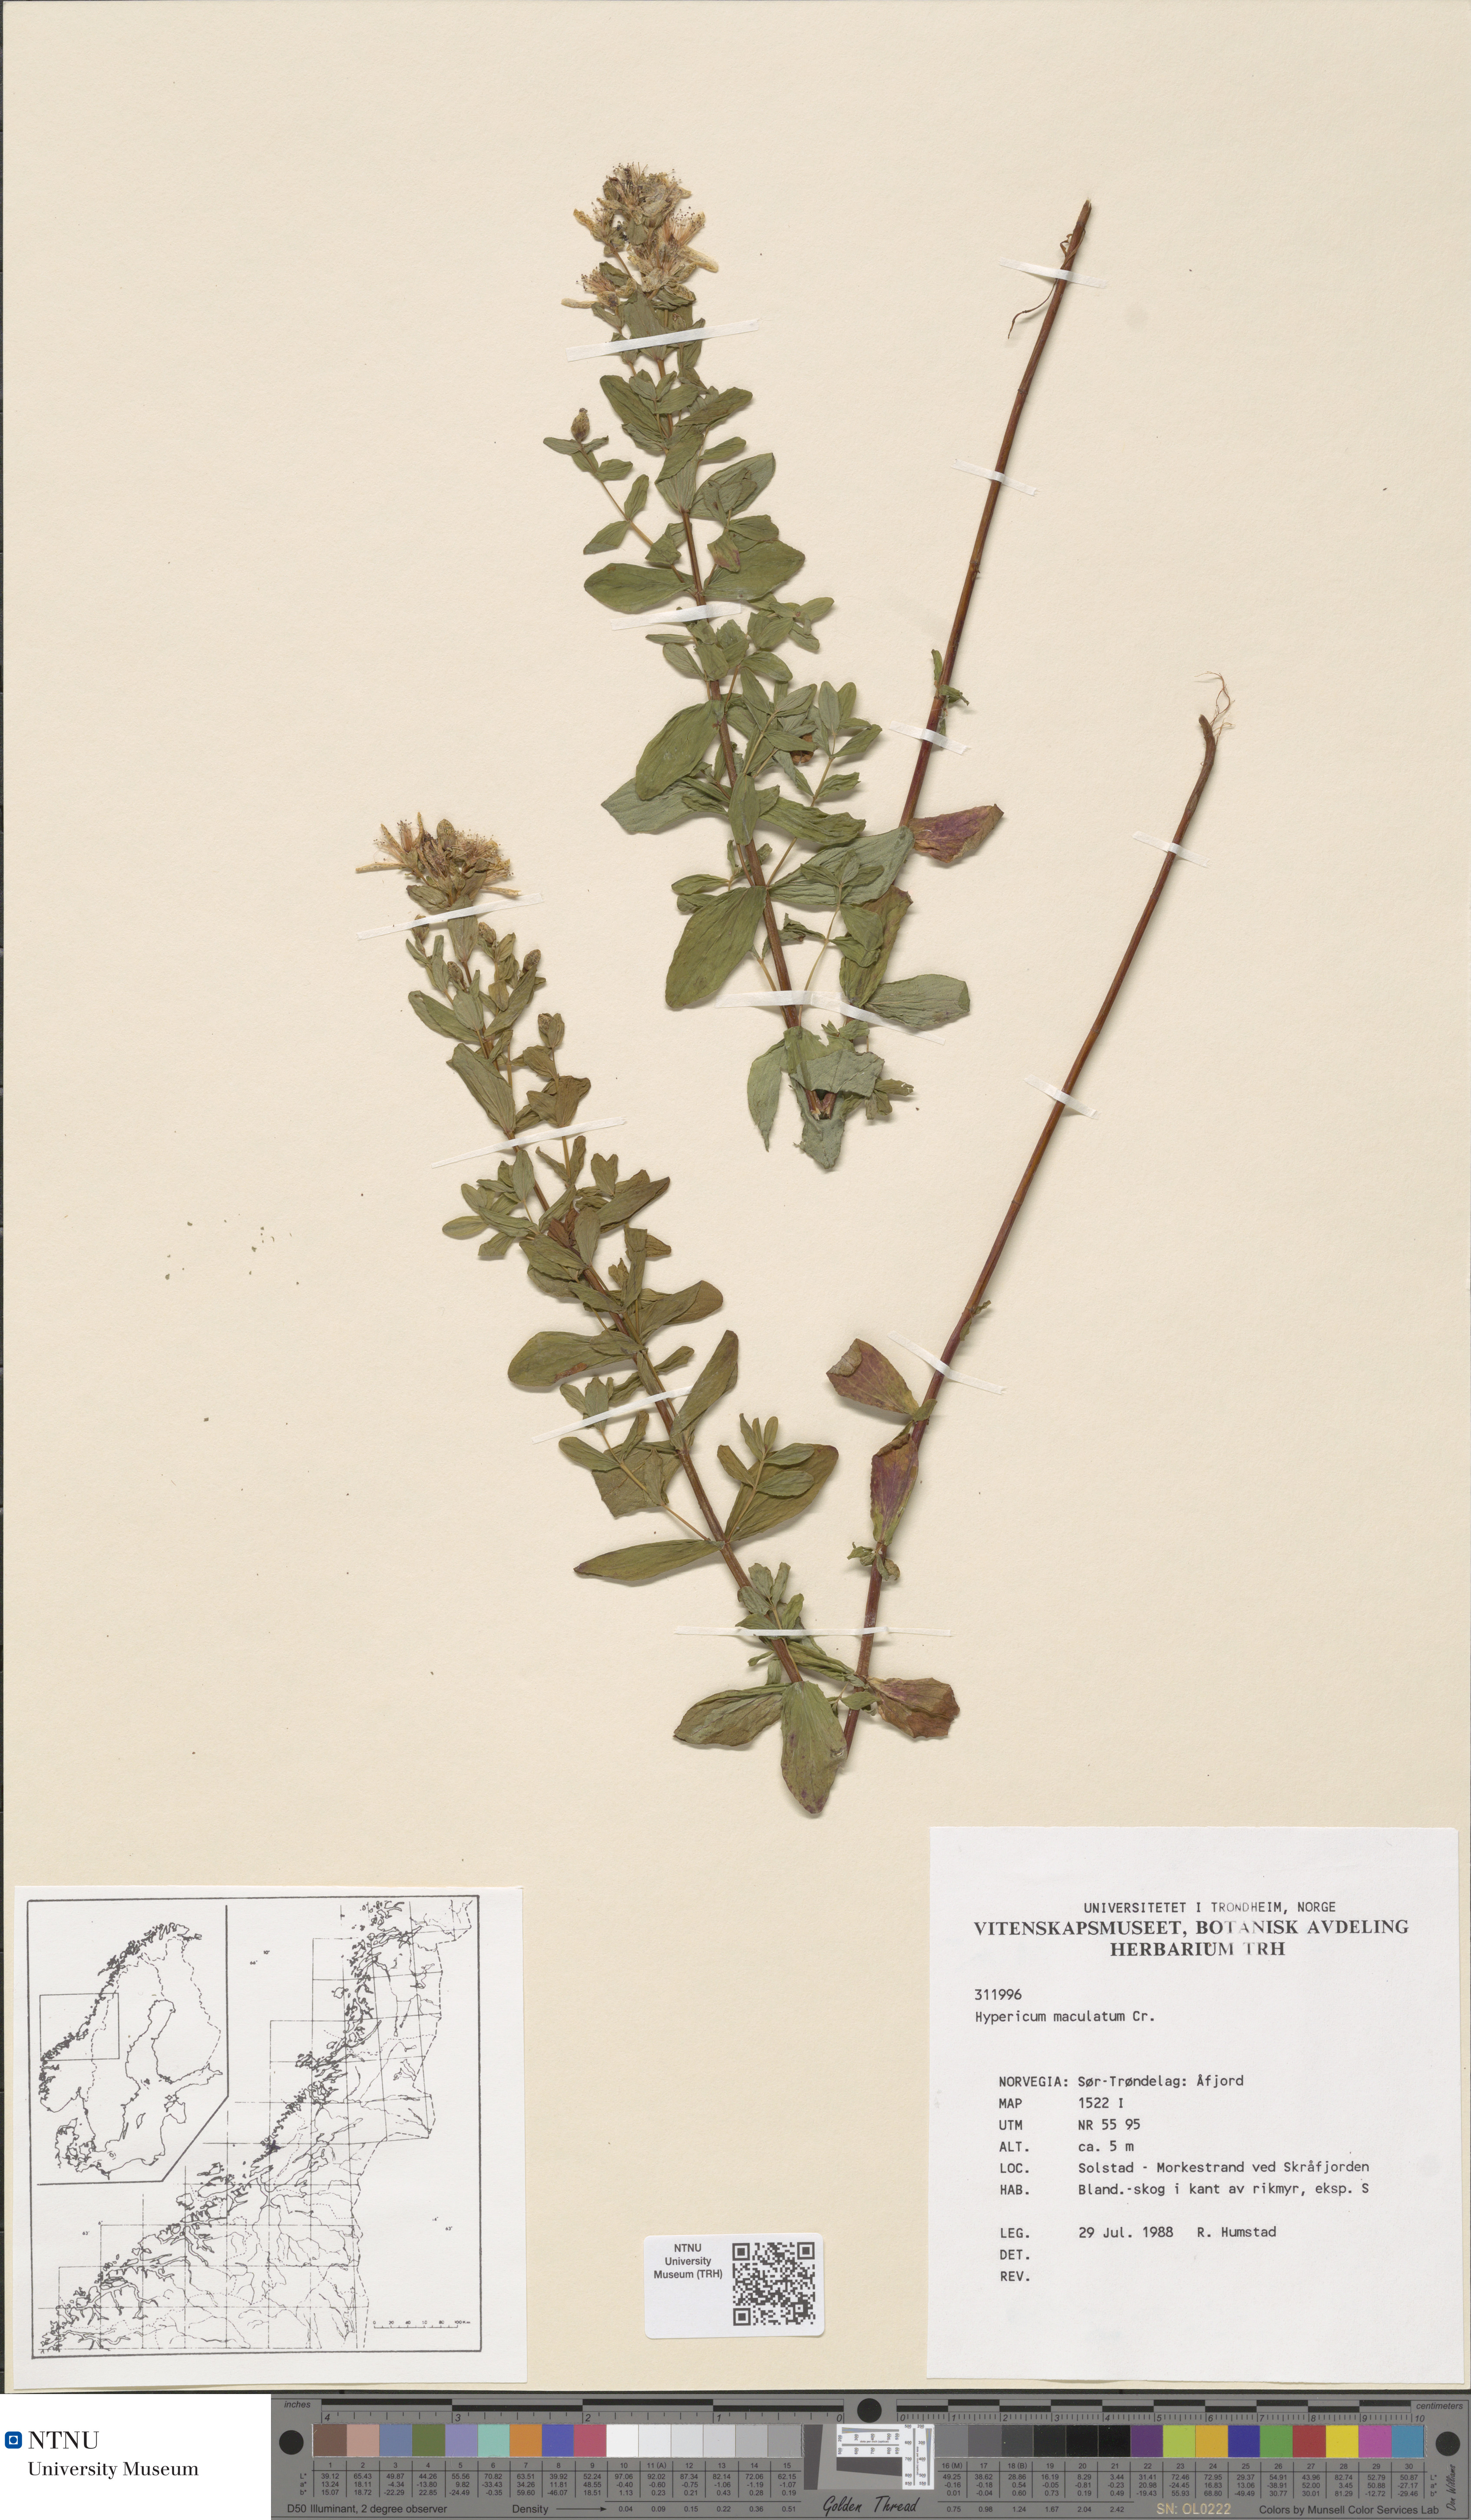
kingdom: Plantae
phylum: Tracheophyta
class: Magnoliopsida
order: Malpighiales
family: Hypericaceae
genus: Hypericum
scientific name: Hypericum maculatum
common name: Imperforate st. john's-wort
